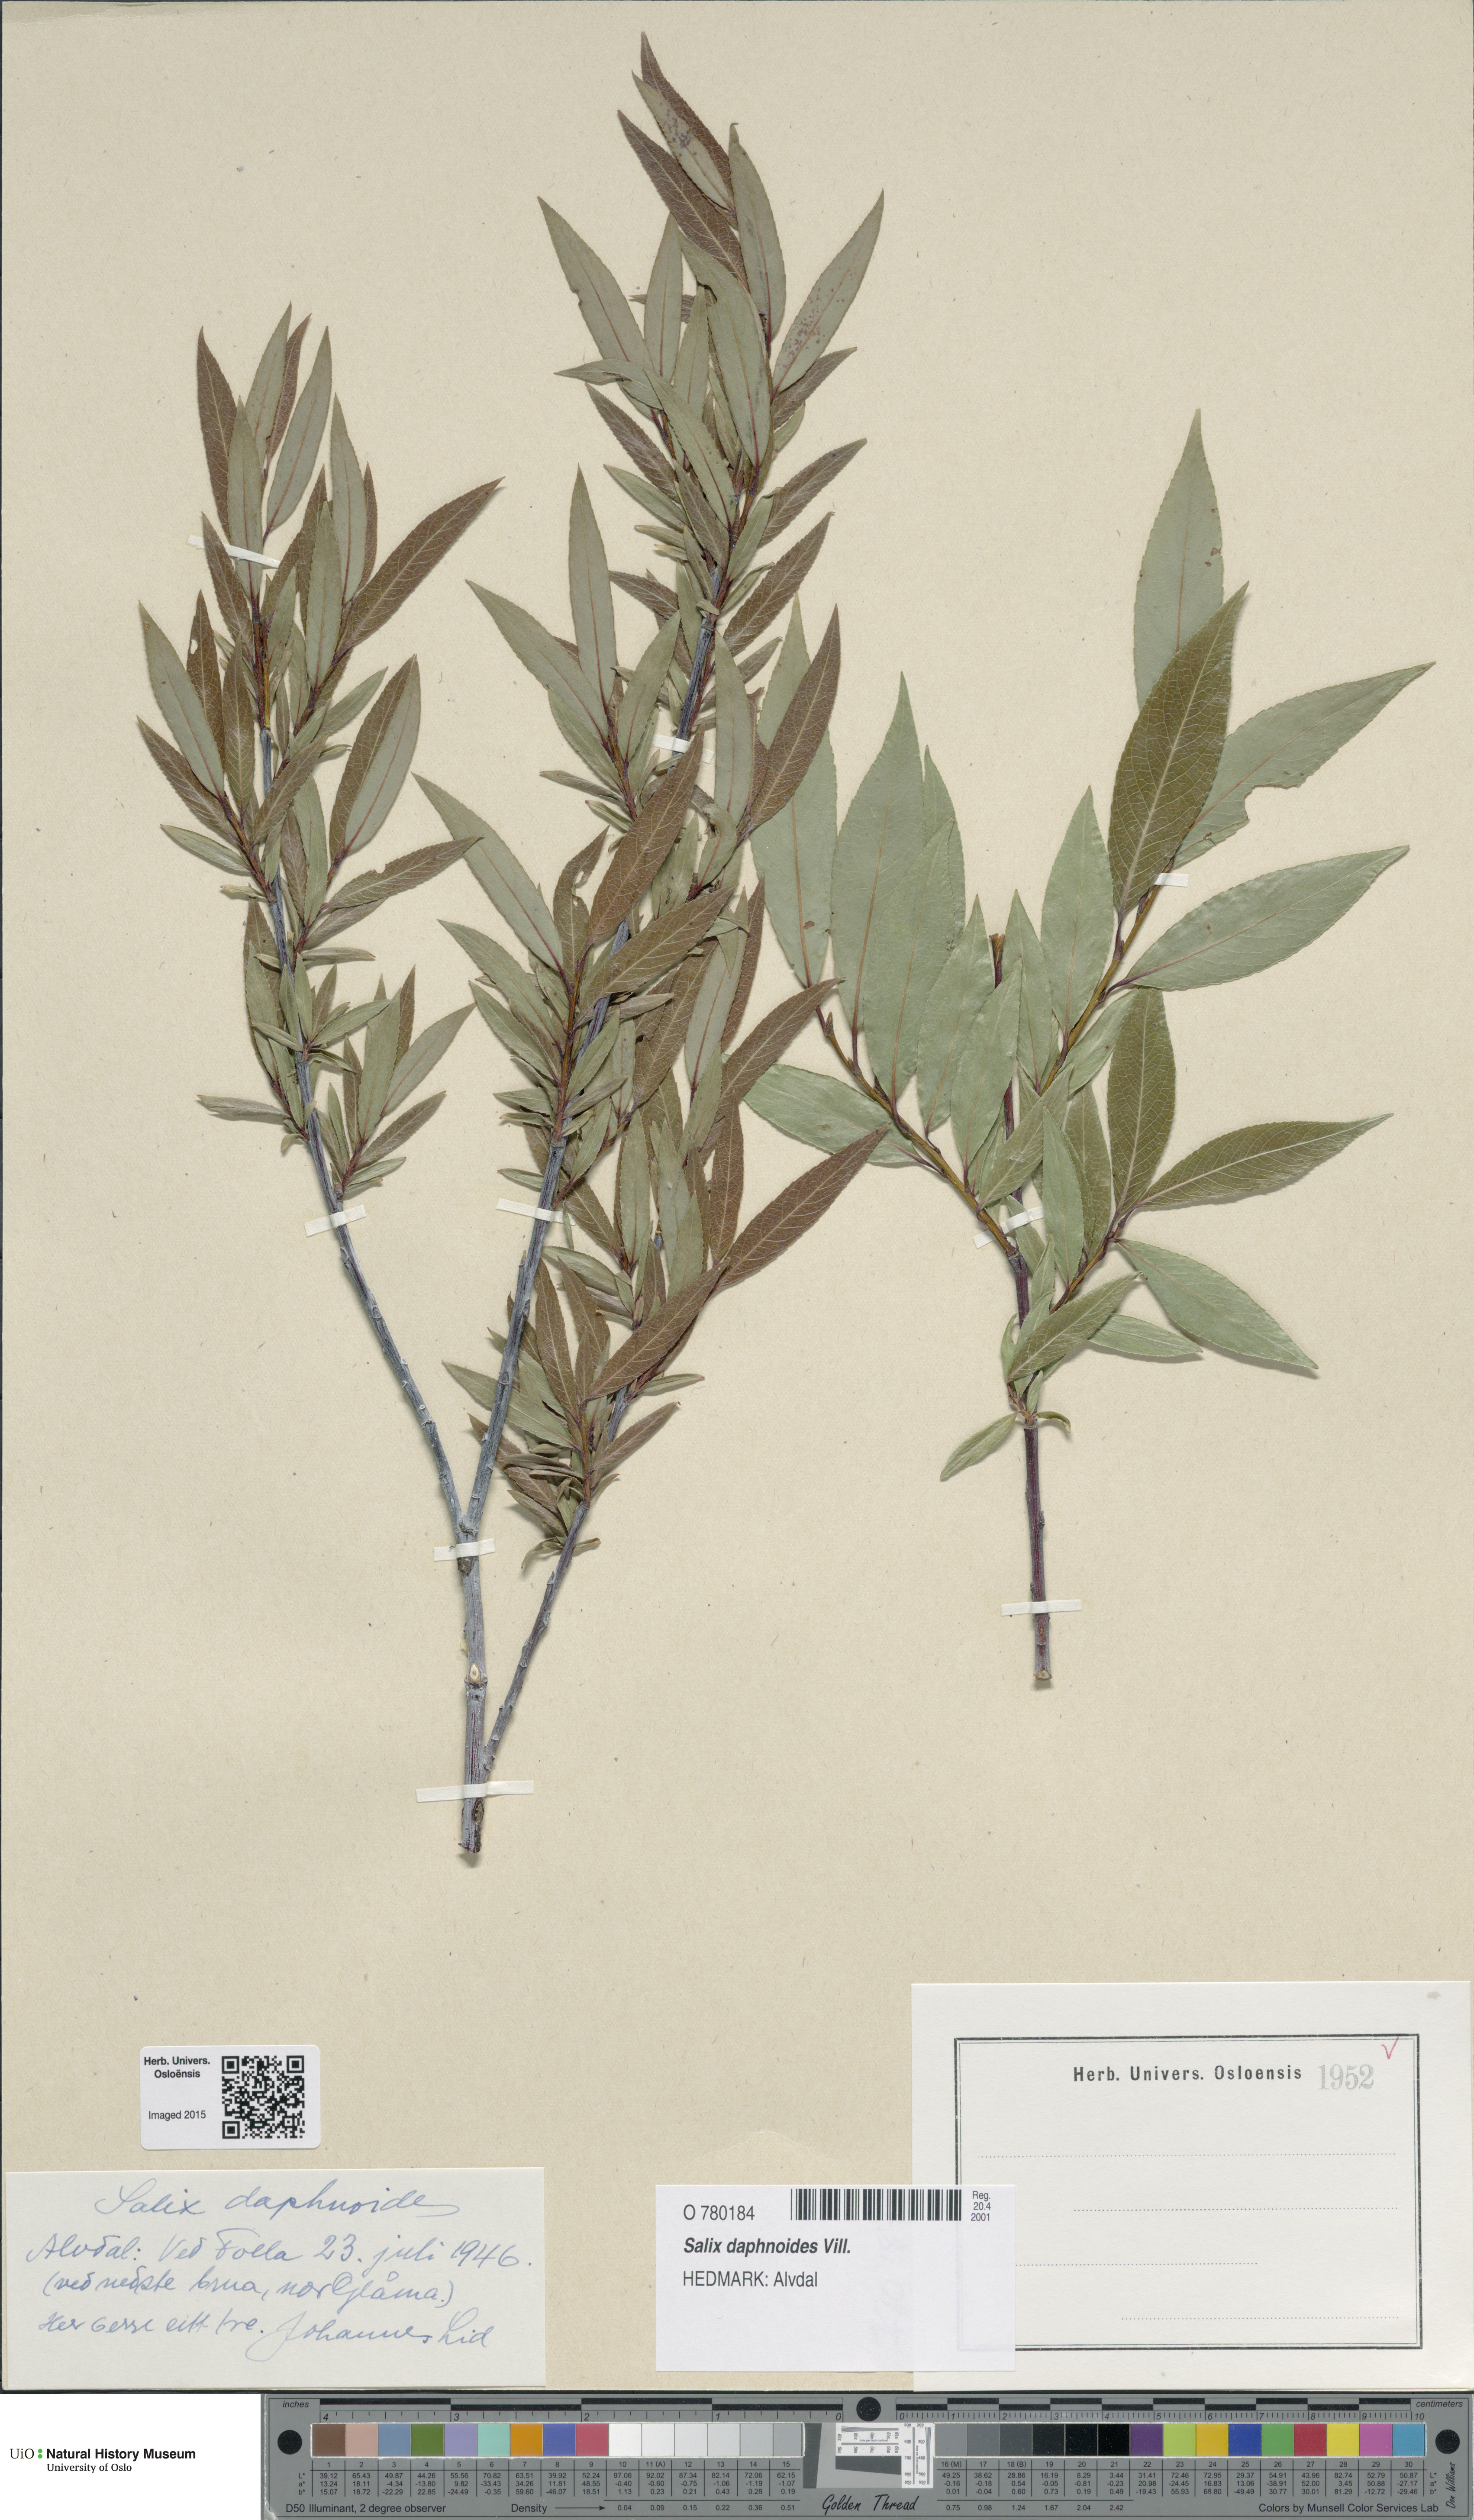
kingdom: Plantae
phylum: Tracheophyta
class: Magnoliopsida
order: Malpighiales
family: Salicaceae
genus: Salix
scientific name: Salix daphnoides
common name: European violet-willow
